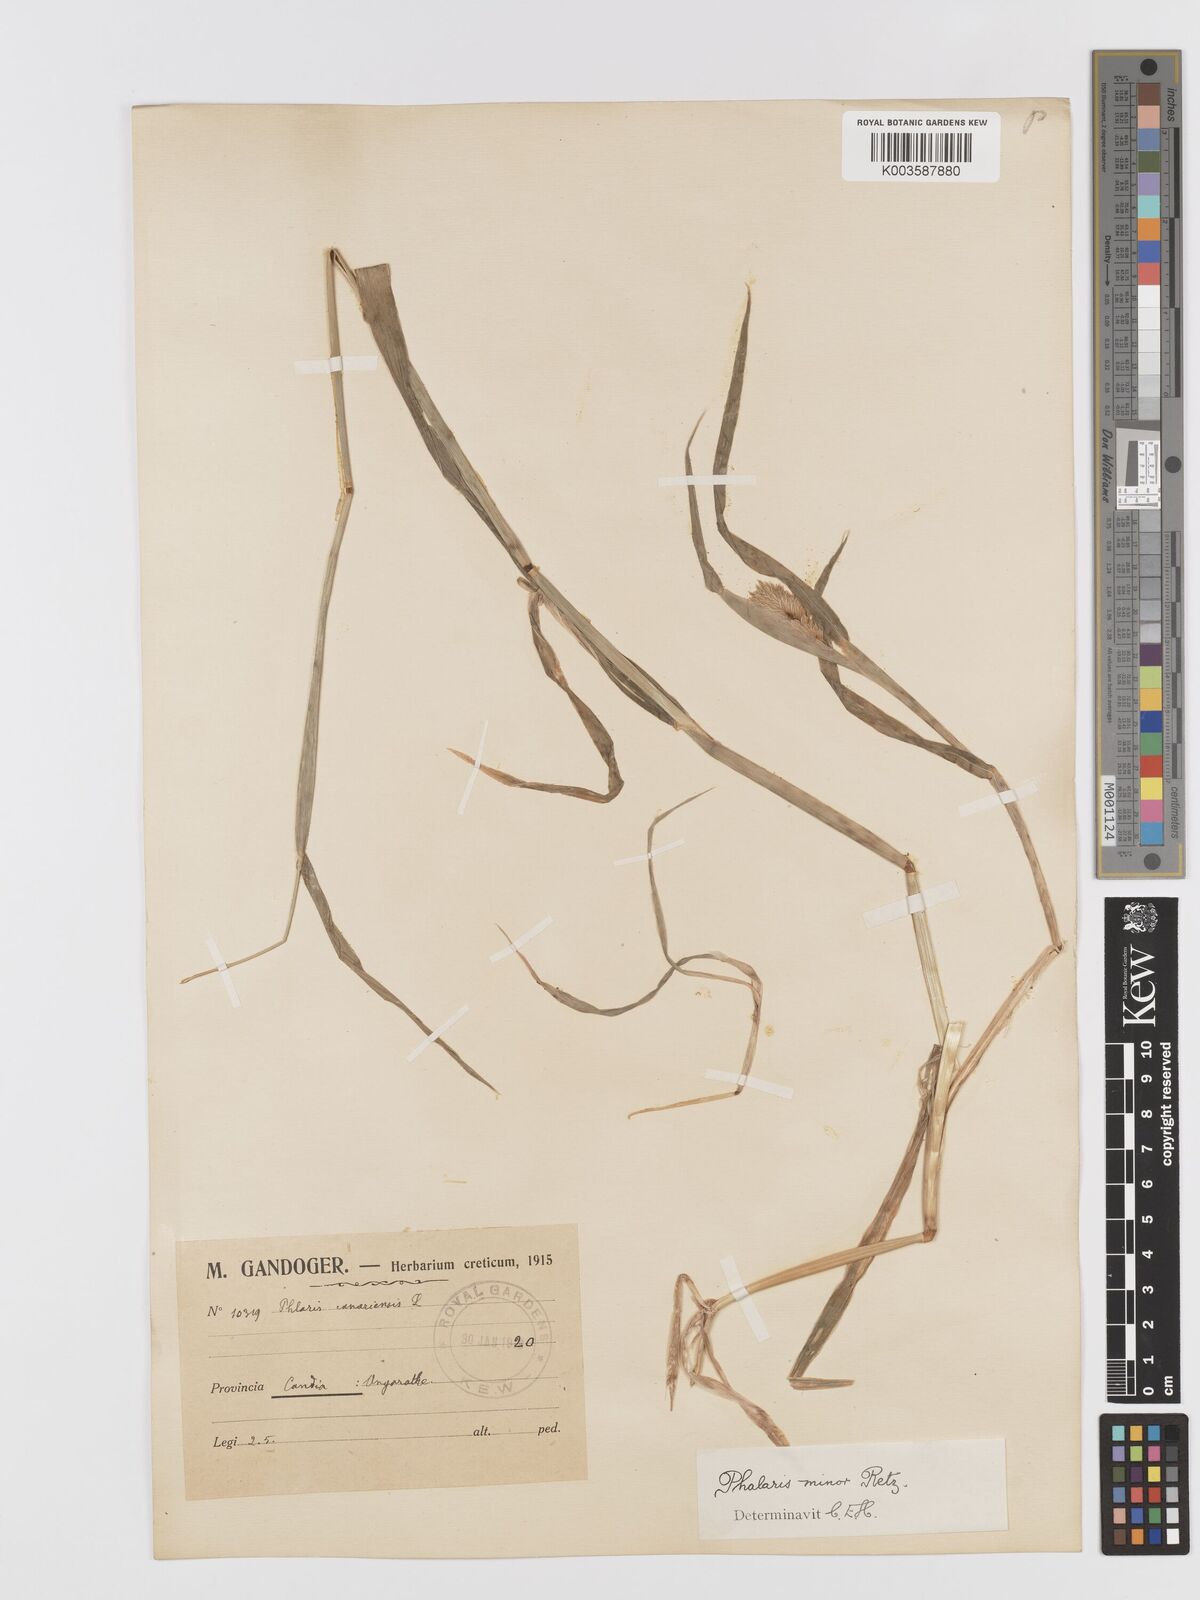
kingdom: Plantae
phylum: Tracheophyta
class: Liliopsida
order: Poales
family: Poaceae
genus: Phalaris
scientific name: Phalaris minor
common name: Littleseed canarygrass
